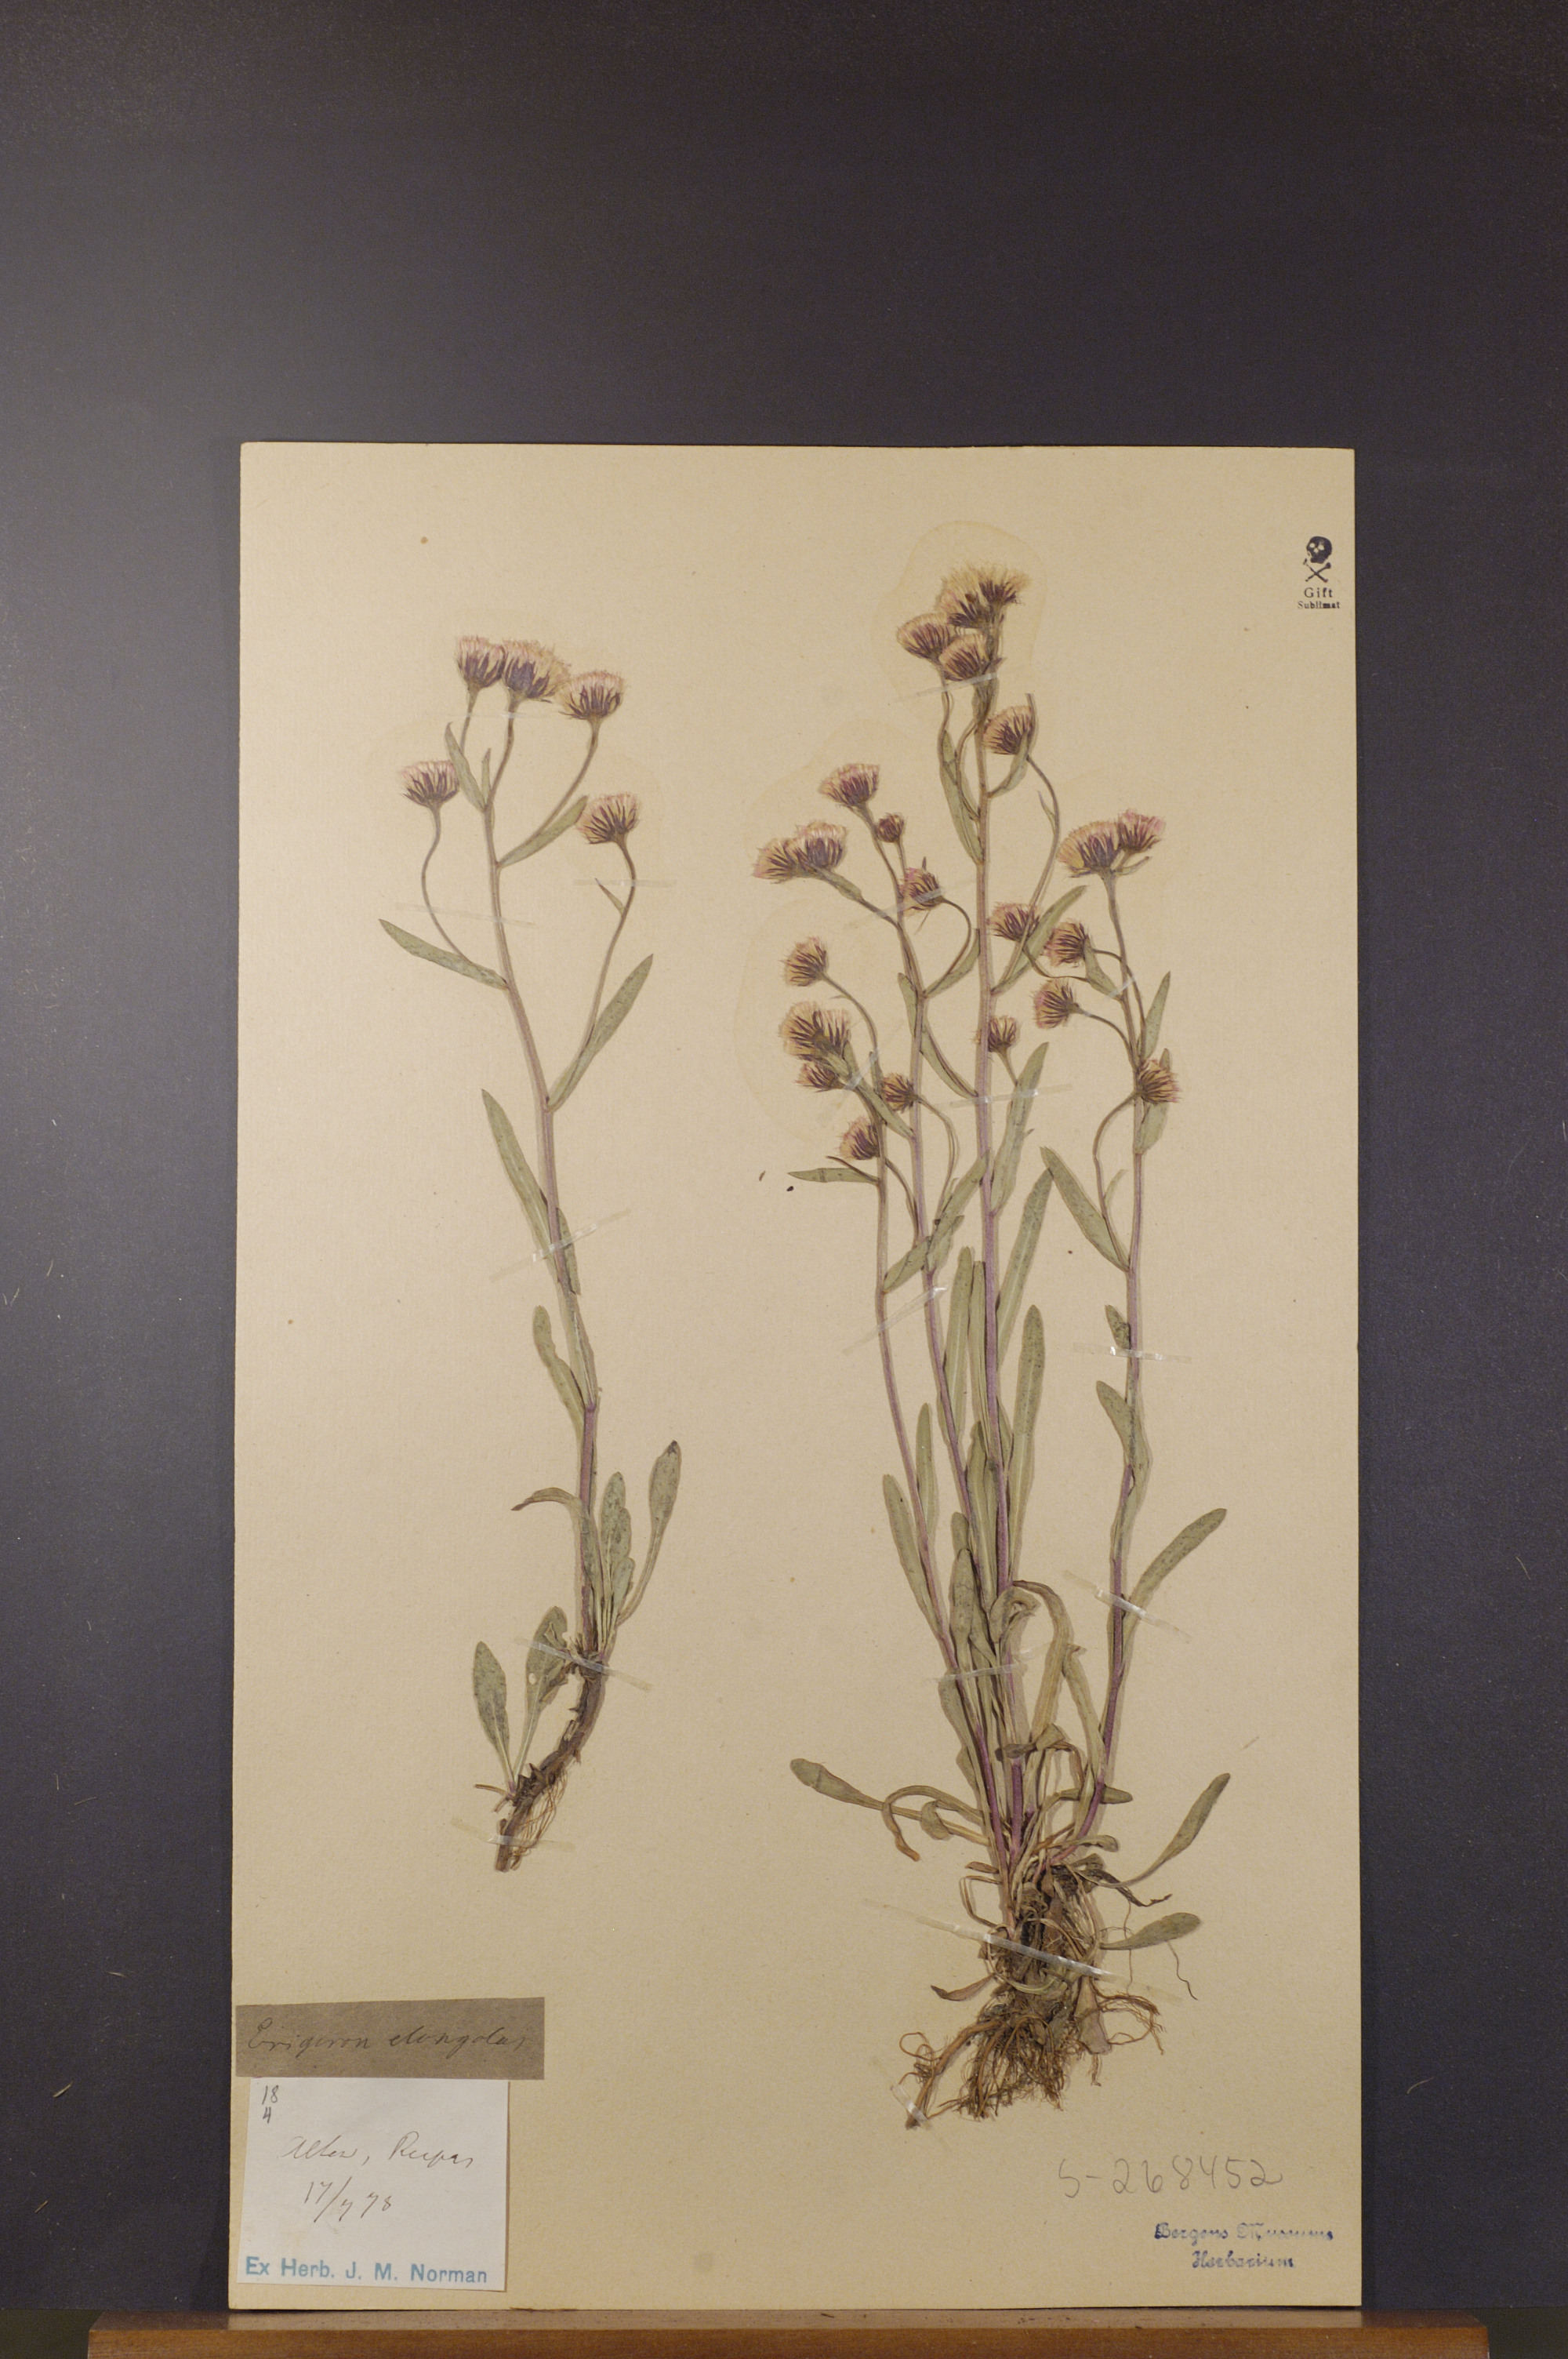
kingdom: Plantae
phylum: Tracheophyta
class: Magnoliopsida
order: Asterales
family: Asteraceae
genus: Erigeron
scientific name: Erigeron politus
